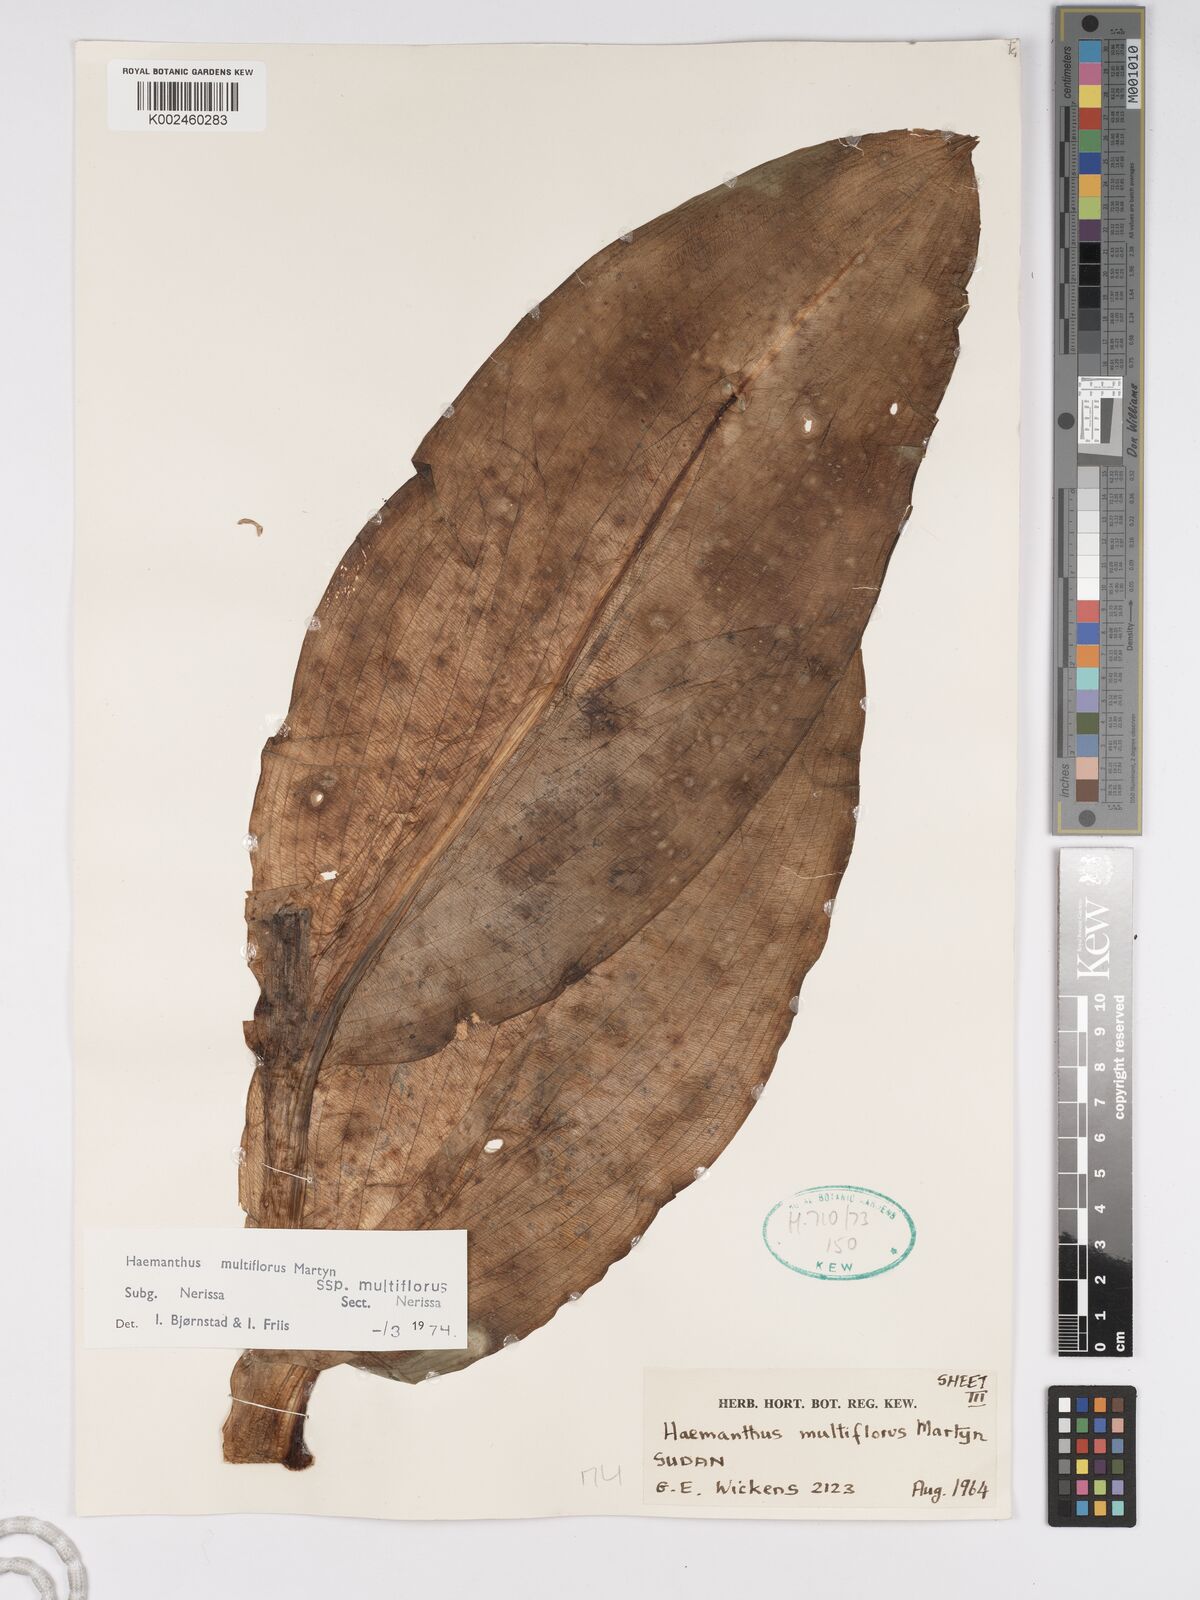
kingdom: Plantae
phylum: Tracheophyta
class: Liliopsida
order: Asparagales
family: Amaryllidaceae
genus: Scadoxus
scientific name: Scadoxus multiflorus
